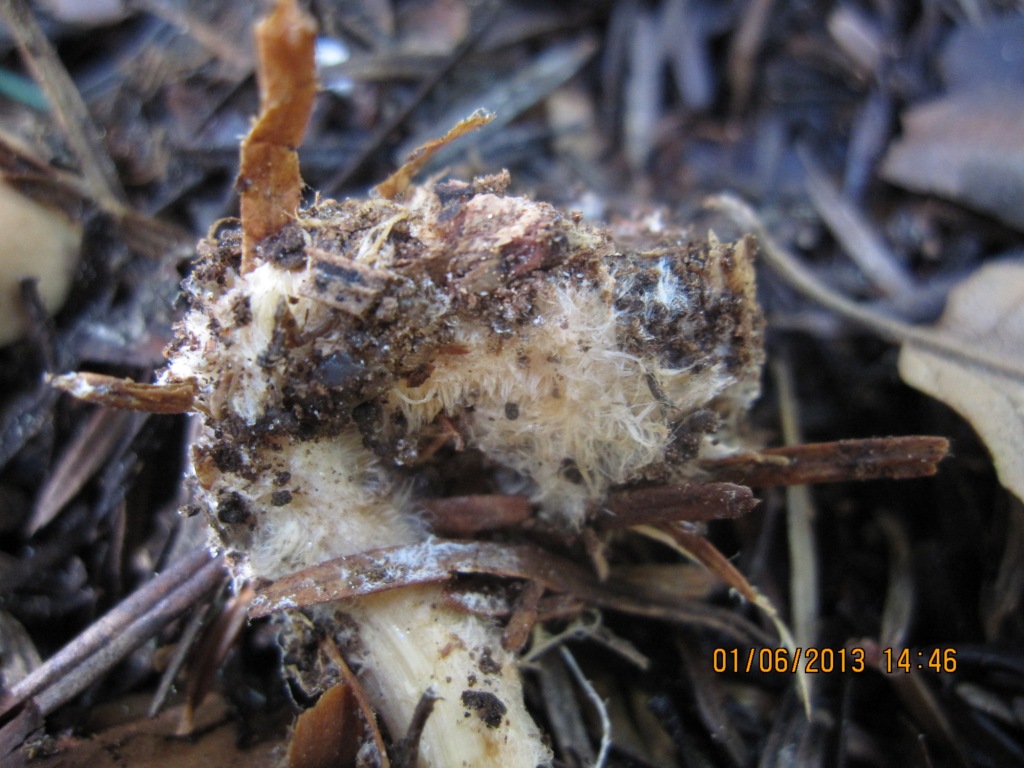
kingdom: Fungi
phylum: Basidiomycota
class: Agaricomycetes
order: Agaricales
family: Omphalotaceae
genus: Gymnopus
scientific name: Gymnopus aquosus
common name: bleg fladhat
